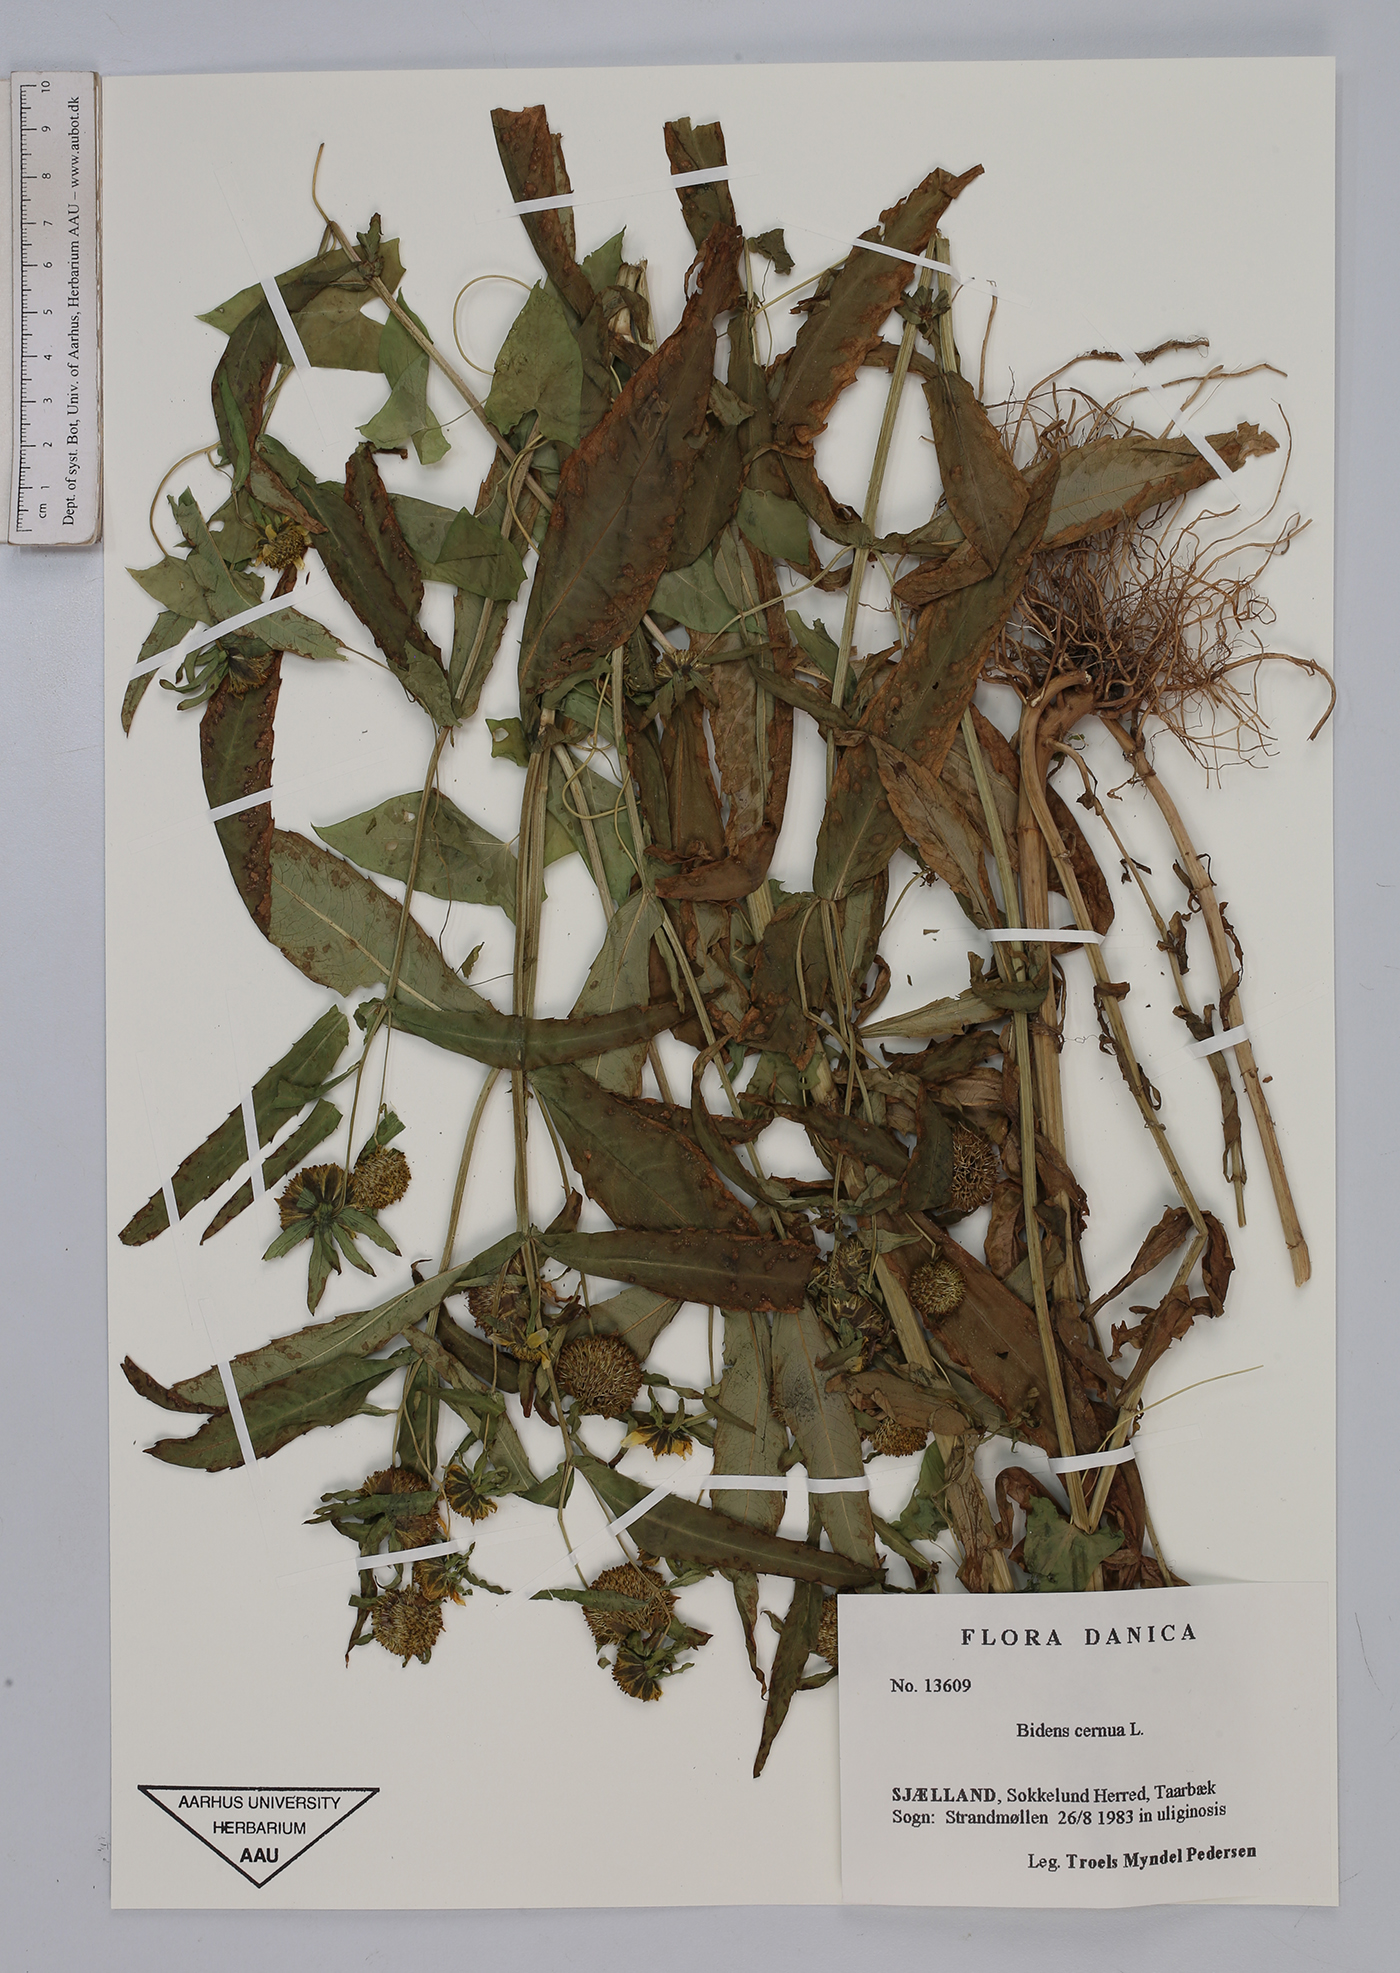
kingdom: Plantae
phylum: Tracheophyta
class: Magnoliopsida
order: Asterales
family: Asteraceae
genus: Bidens
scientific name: Bidens cernua
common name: Nodding bur-marigold
